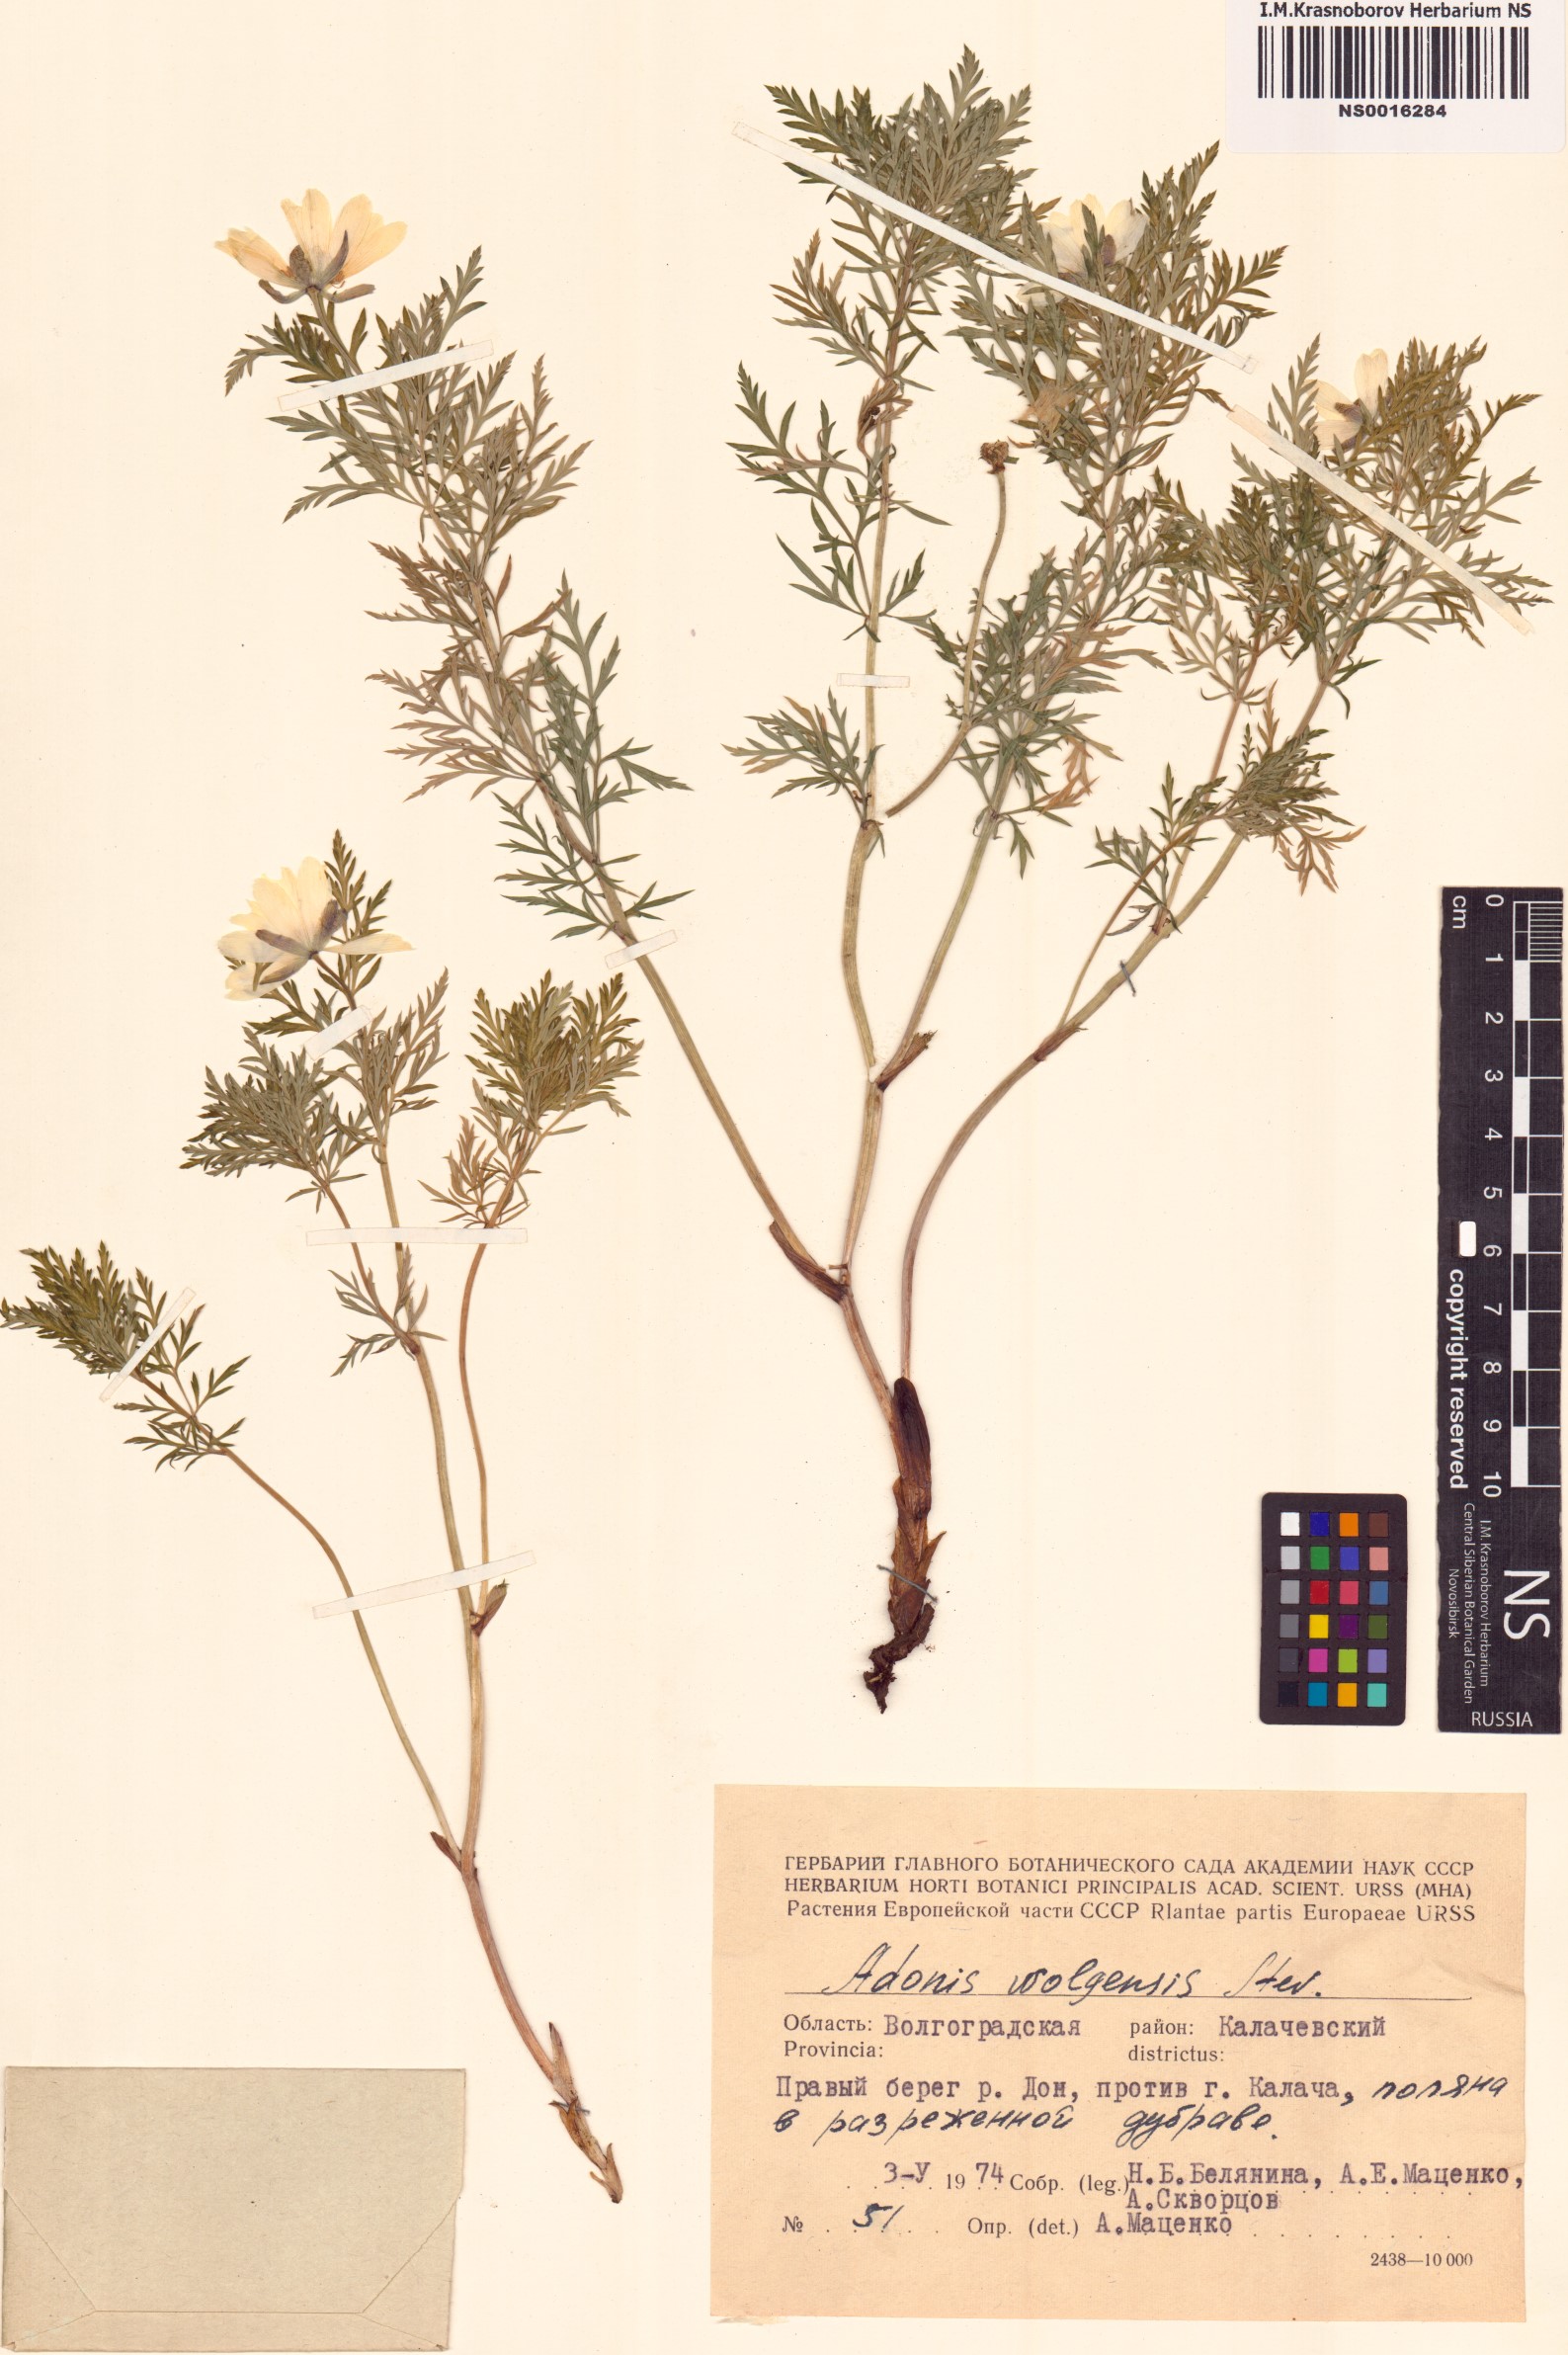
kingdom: Plantae
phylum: Tracheophyta
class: Magnoliopsida
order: Ranunculales
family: Ranunculaceae
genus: Adonis
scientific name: Adonis volgensis
